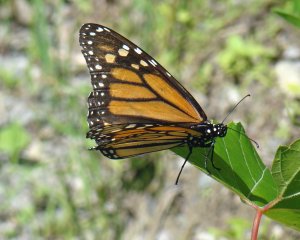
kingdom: Animalia
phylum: Arthropoda
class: Insecta
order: Lepidoptera
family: Nymphalidae
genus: Danaus
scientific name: Danaus plexippus
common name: Monarch
